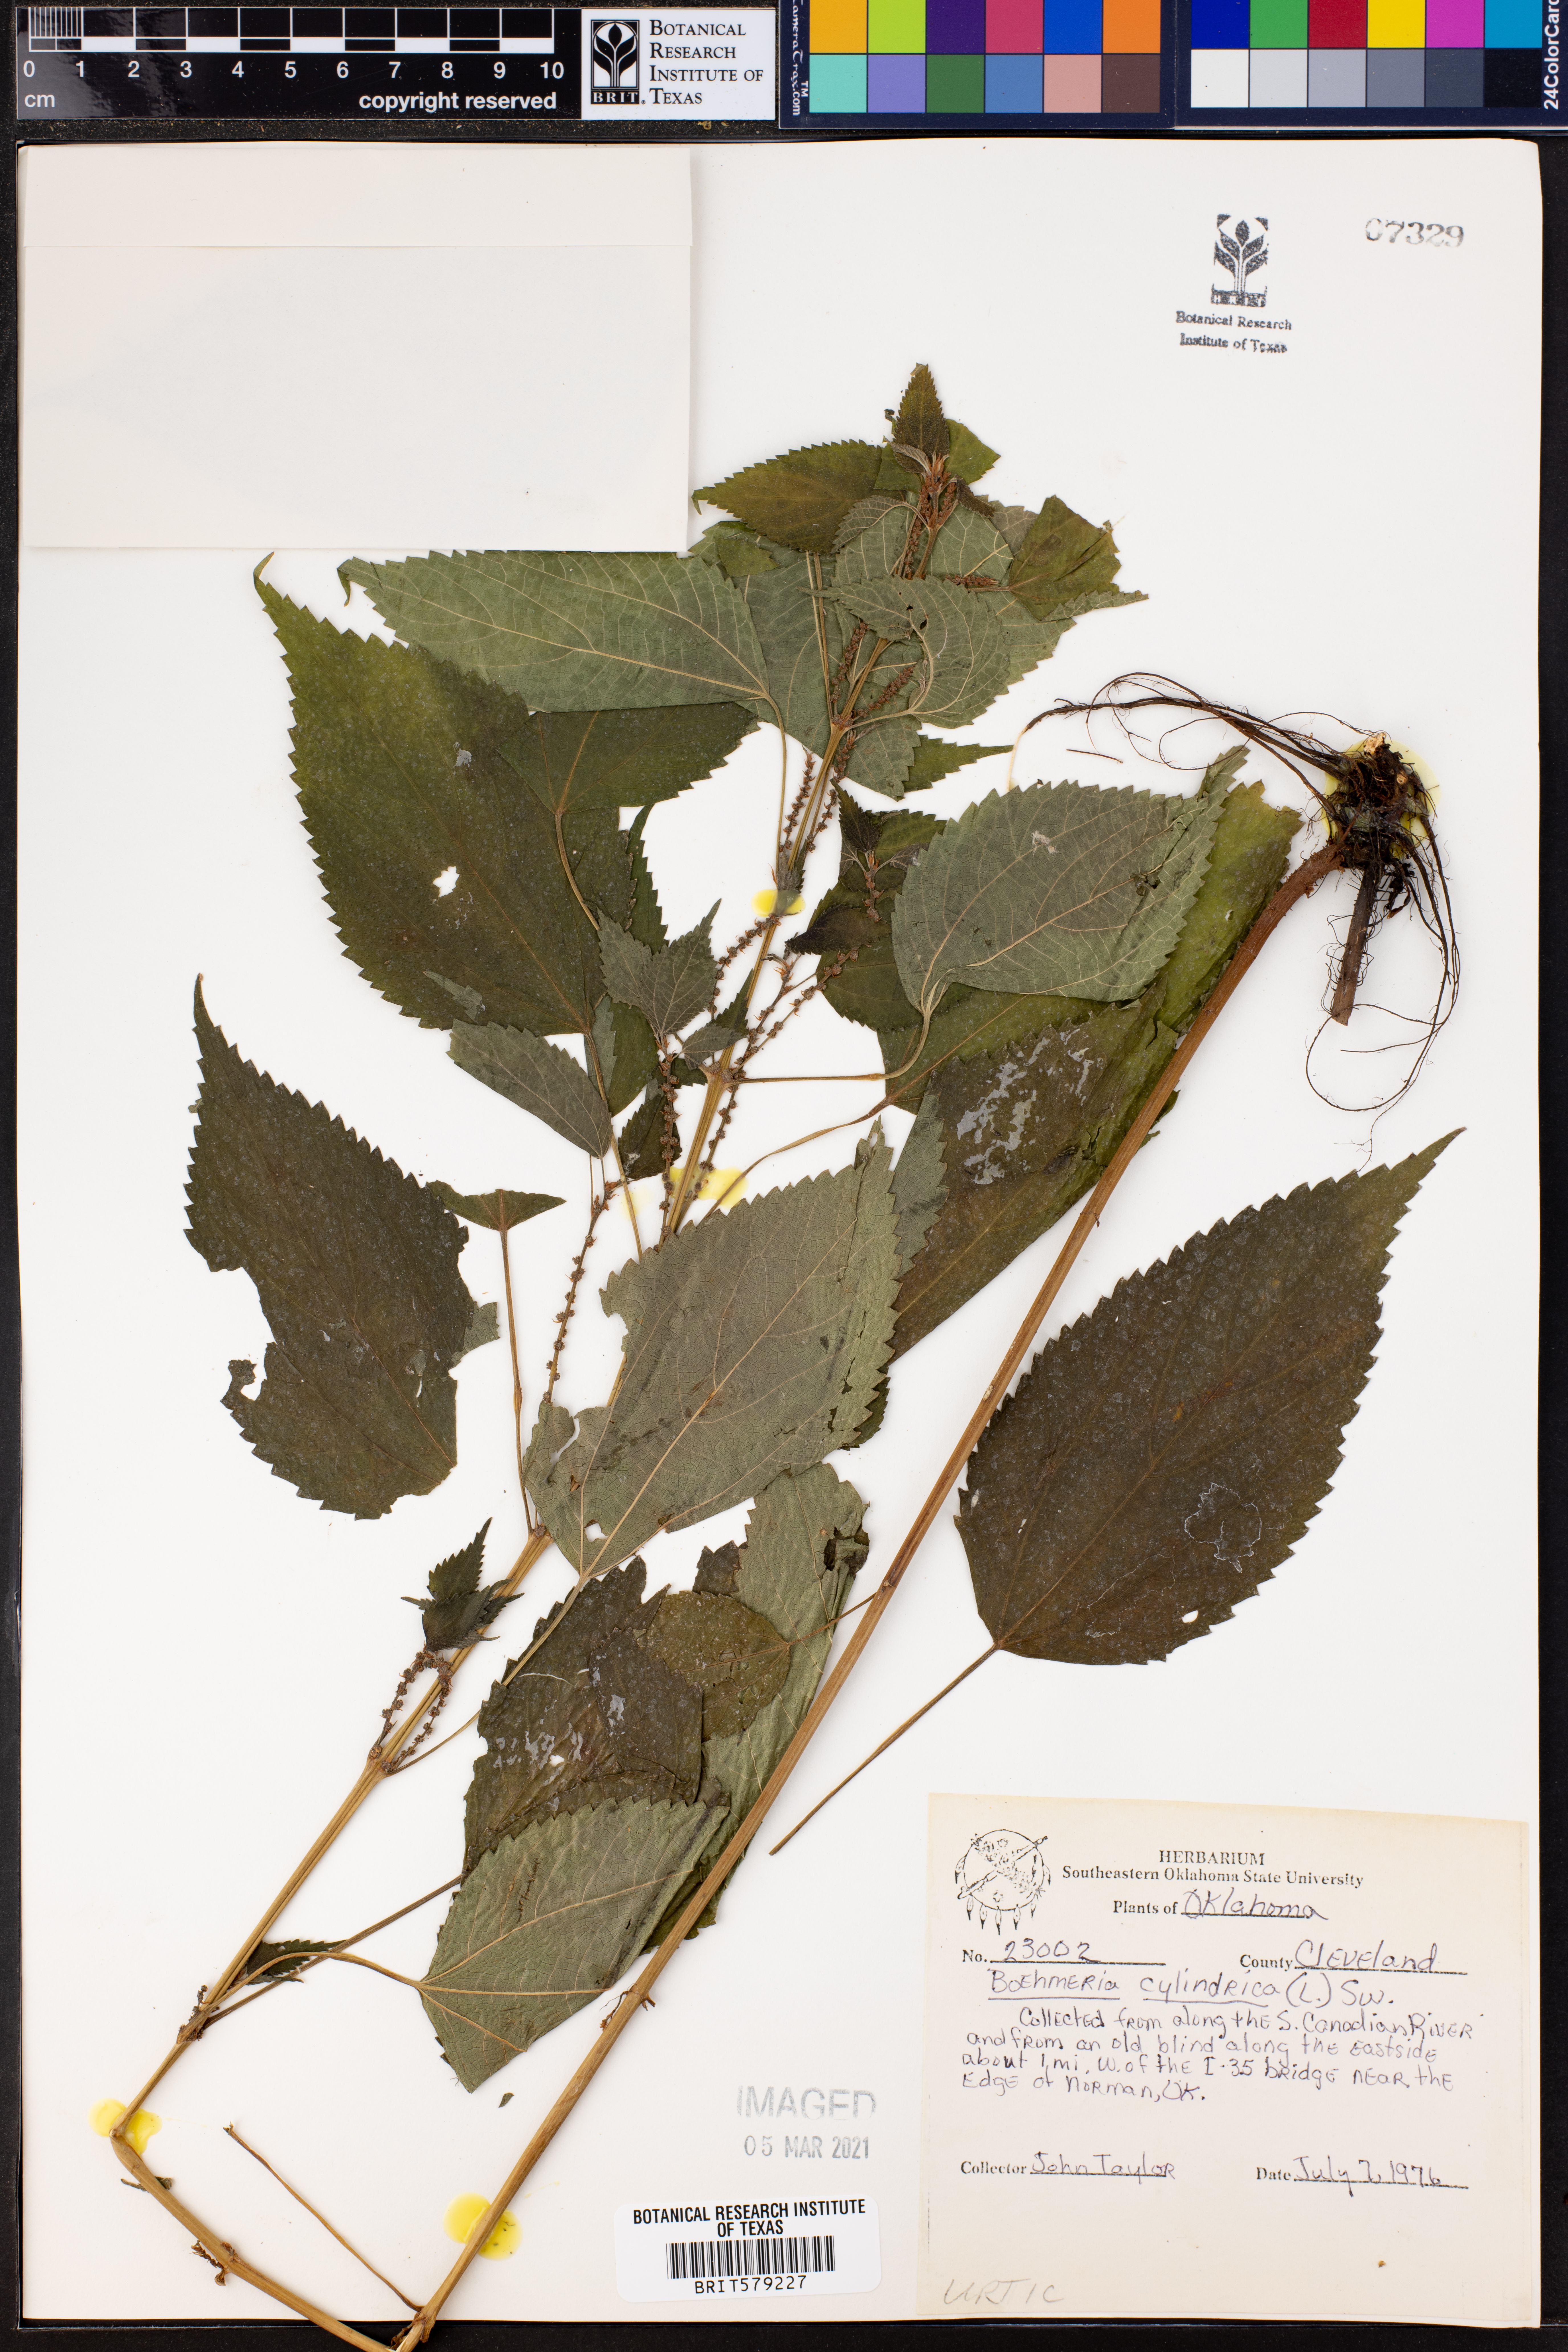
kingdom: Plantae
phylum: Tracheophyta
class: Magnoliopsida
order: Rosales
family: Urticaceae
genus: Boehmeria
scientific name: Boehmeria cylindrica
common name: Bog-hemp
